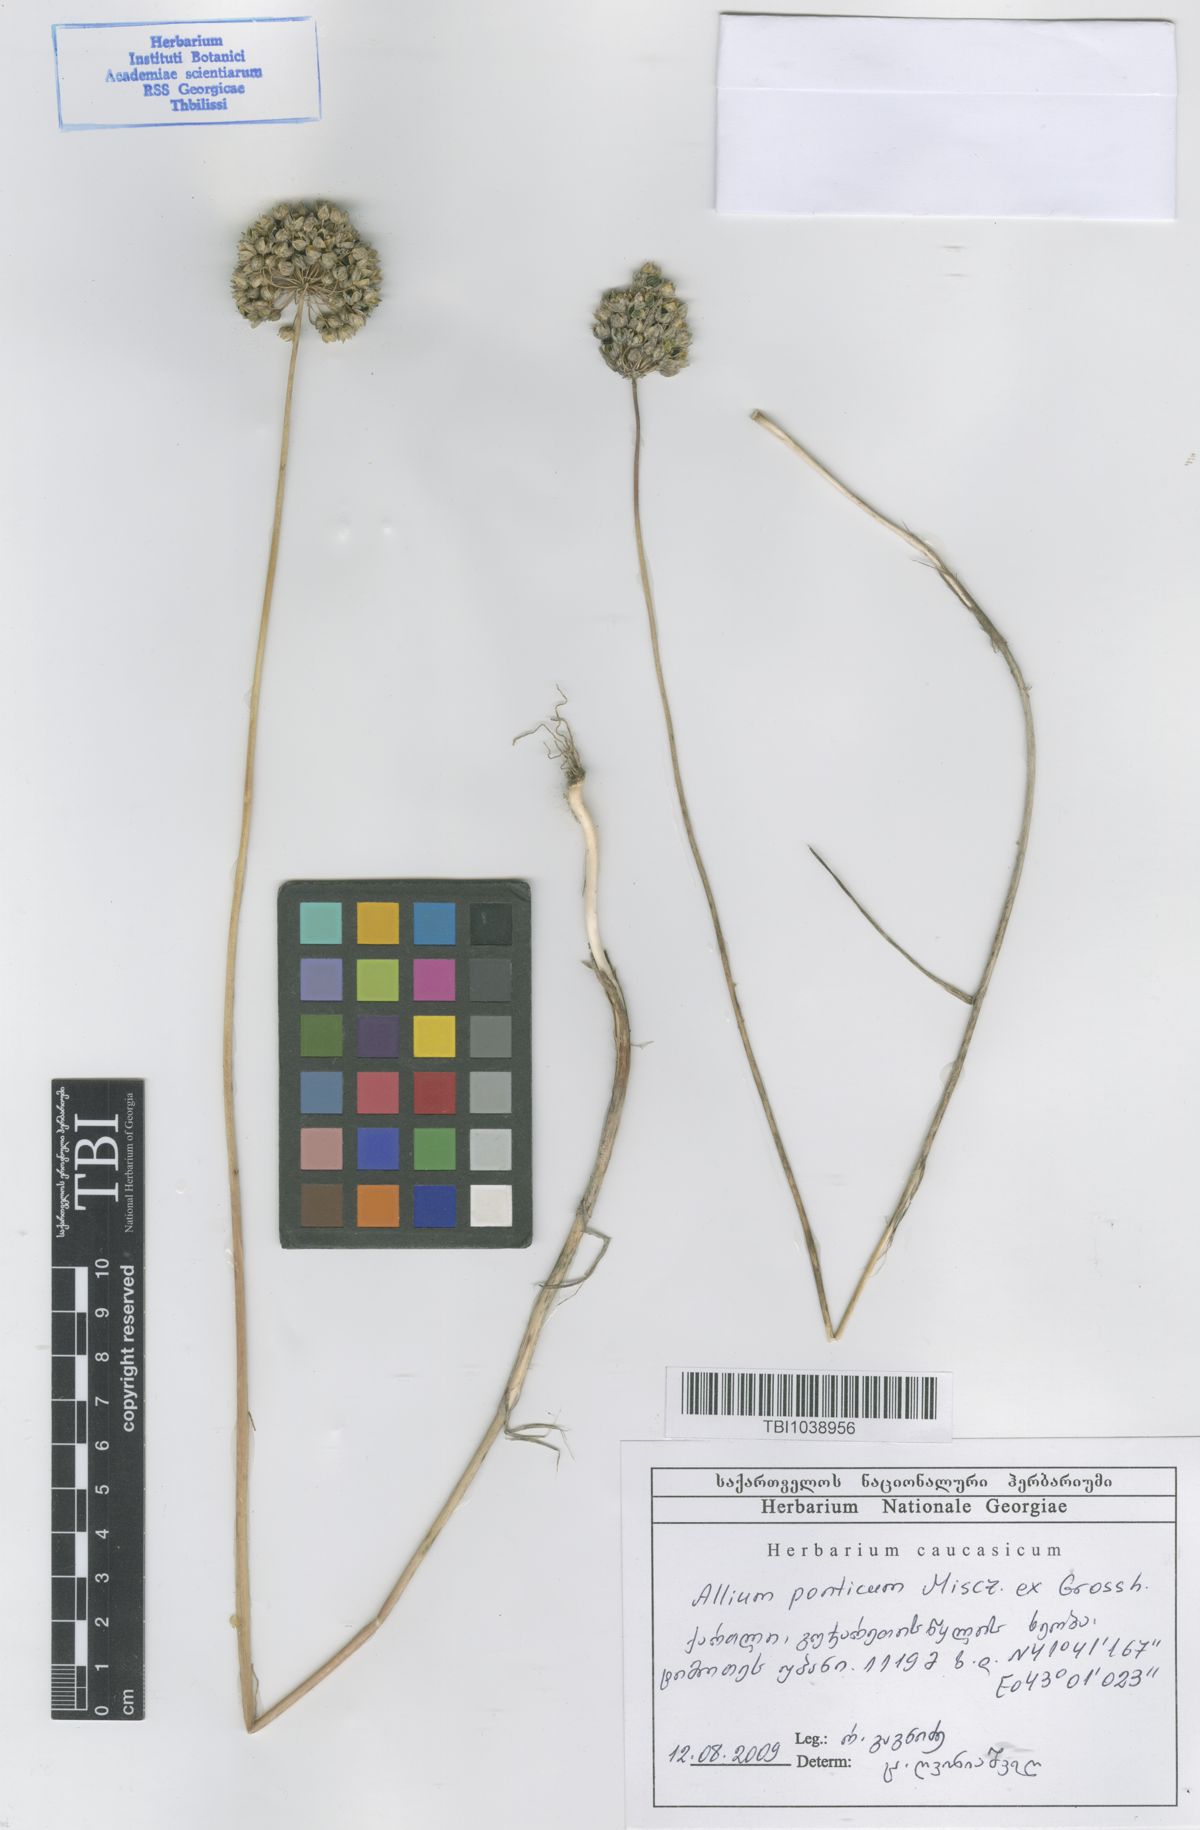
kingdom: Plantae
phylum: Tracheophyta
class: Liliopsida
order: Asparagales
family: Amaryllidaceae
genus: Allium
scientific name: Allium ponticum
